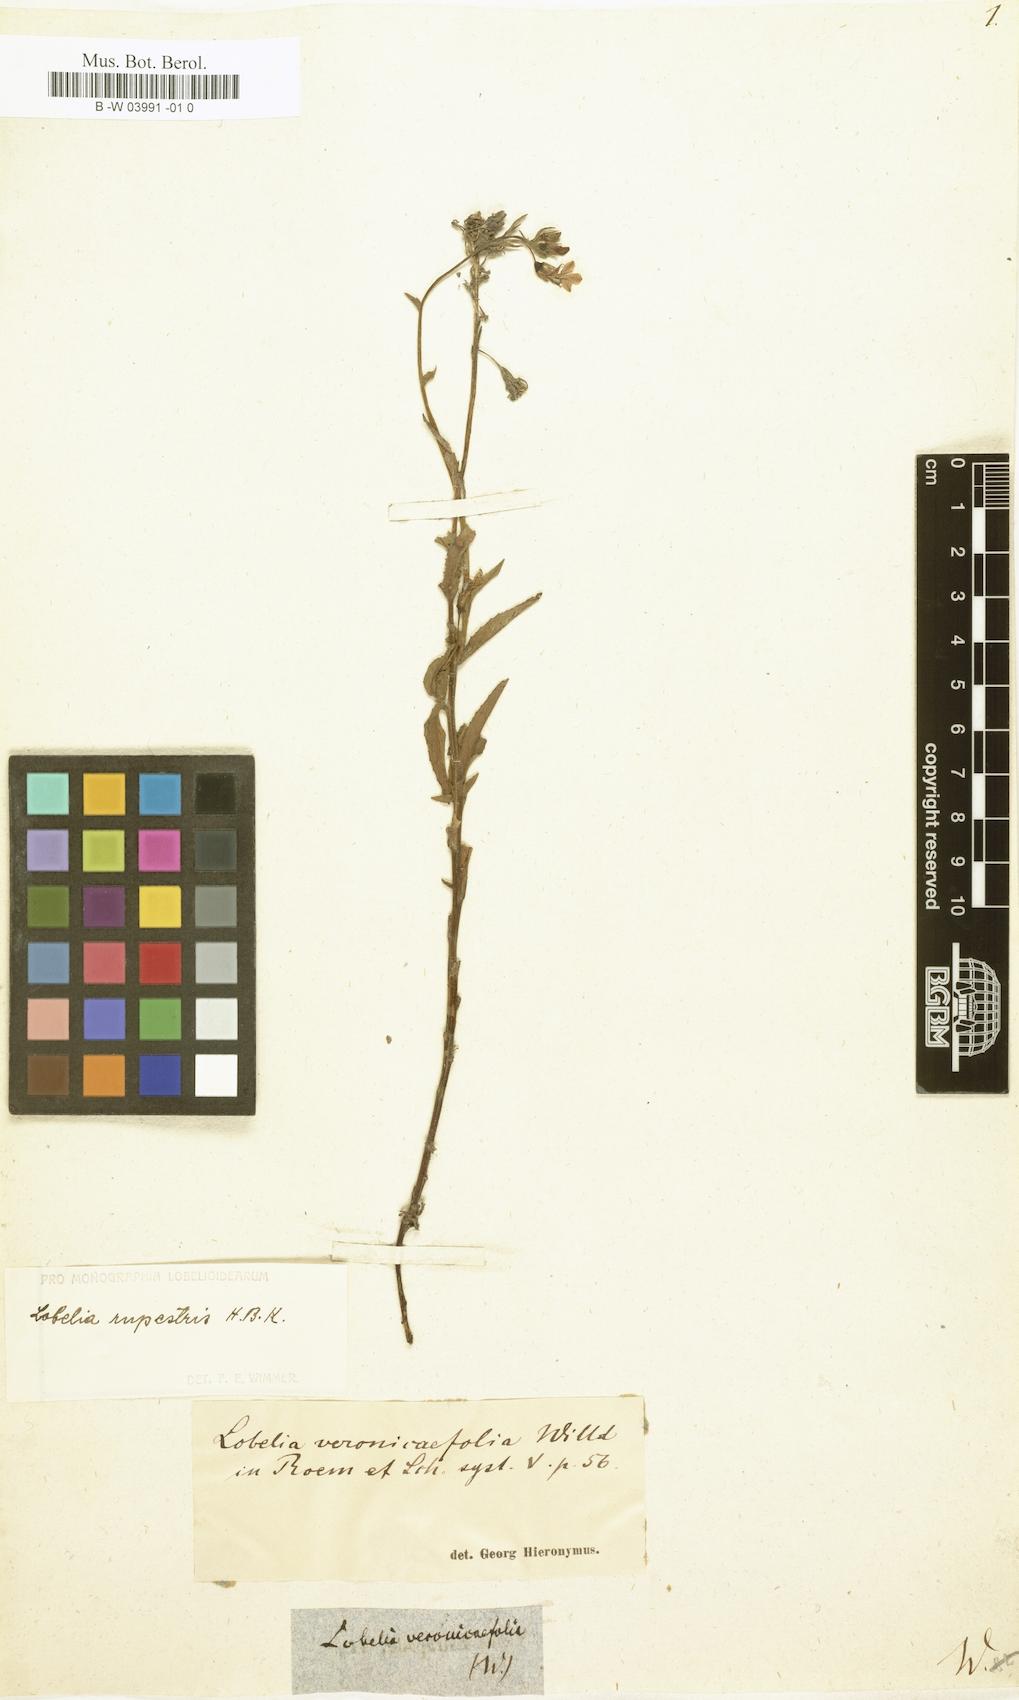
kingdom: Plantae
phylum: Tracheophyta
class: Magnoliopsida
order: Asterales
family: Campanulaceae
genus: Lobelia
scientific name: Lobelia tenera
